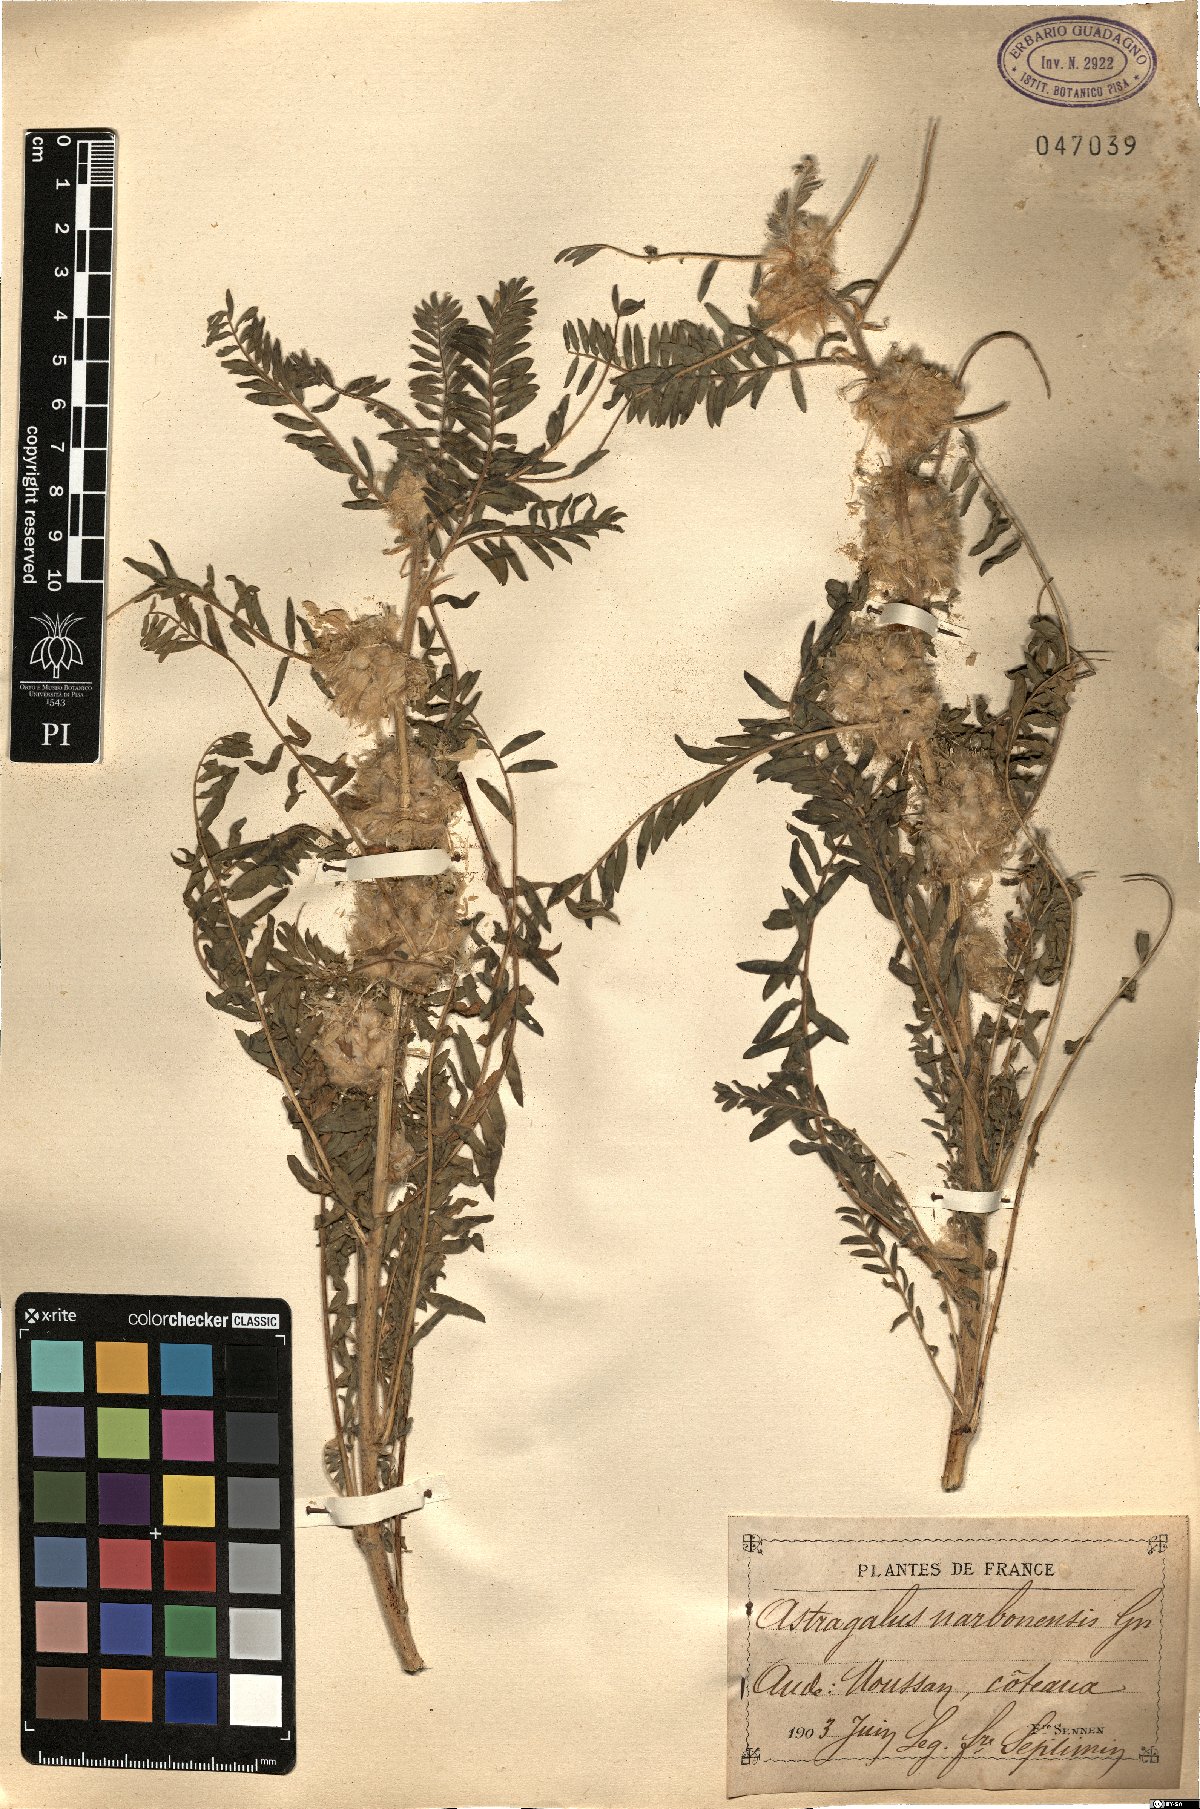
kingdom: Plantae
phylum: Tracheophyta
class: Magnoliopsida
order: Fabales
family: Fabaceae
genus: Astragalus
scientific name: Astragalus alopecuroides
